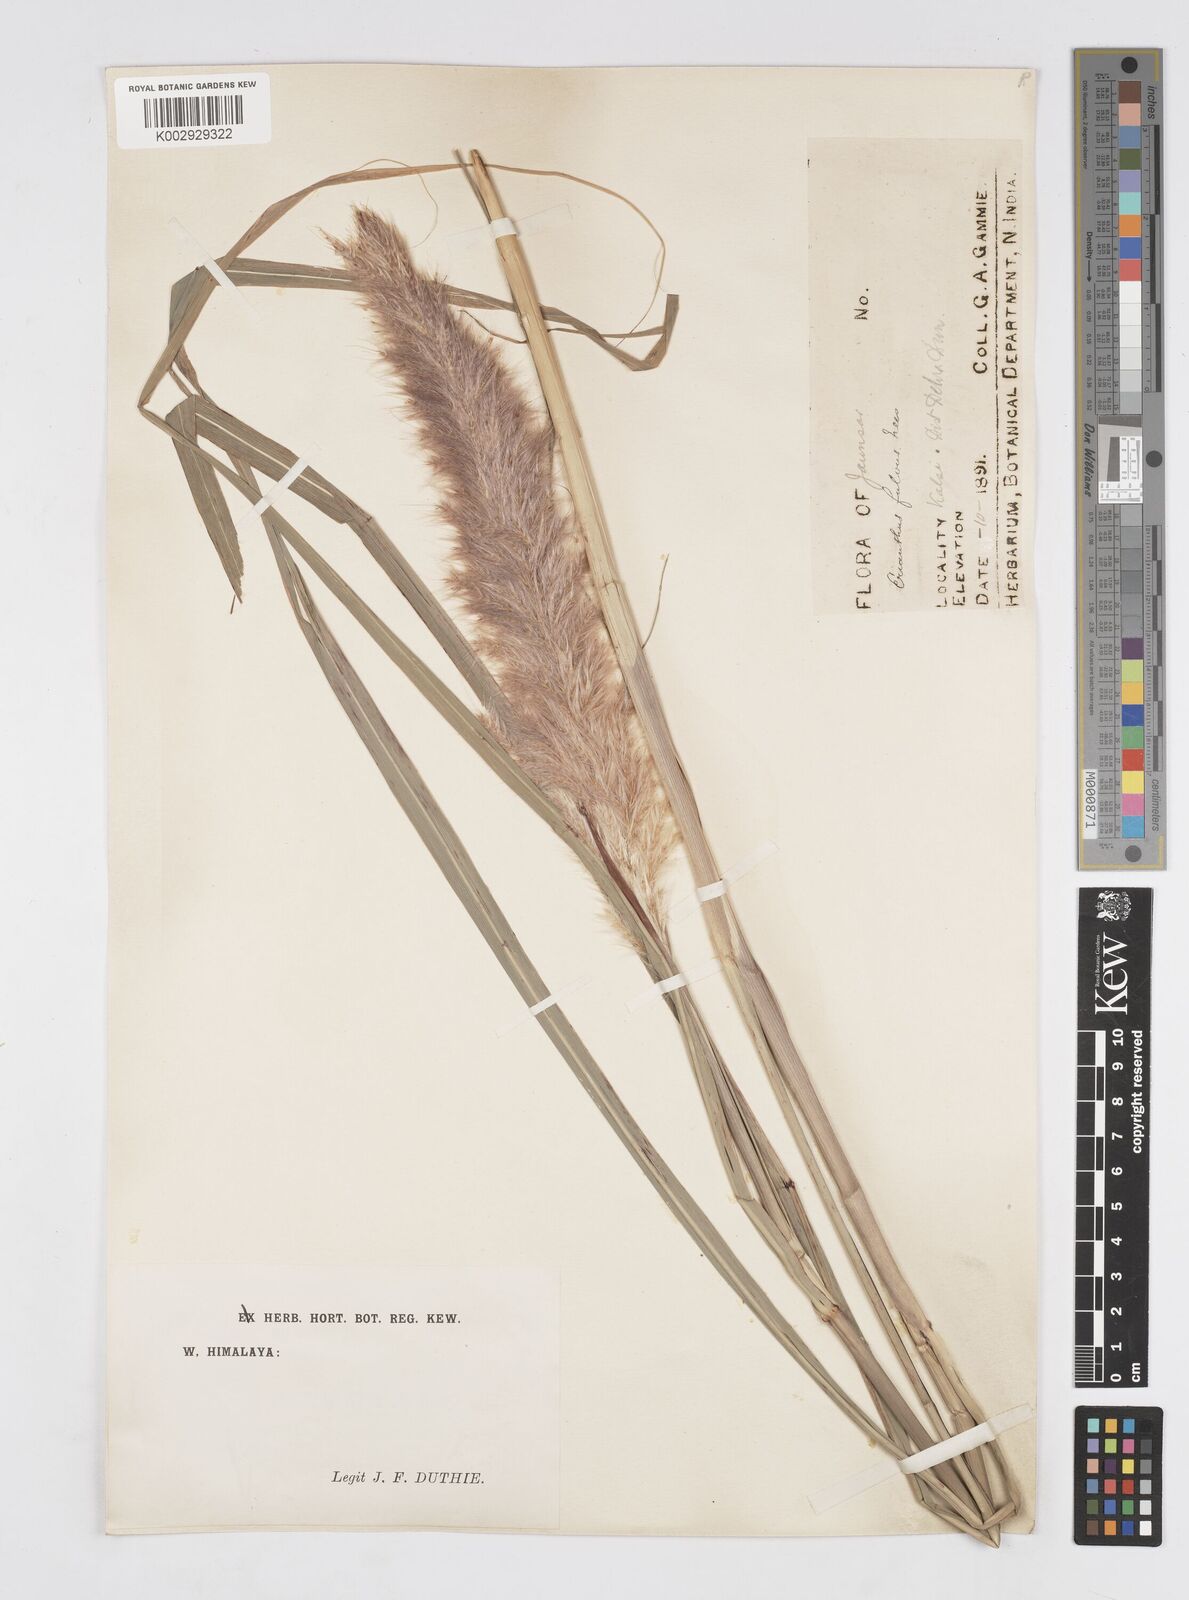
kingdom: Plantae
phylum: Tracheophyta
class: Liliopsida
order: Poales
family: Poaceae
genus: Tripidium
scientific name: Tripidium rufipilum
